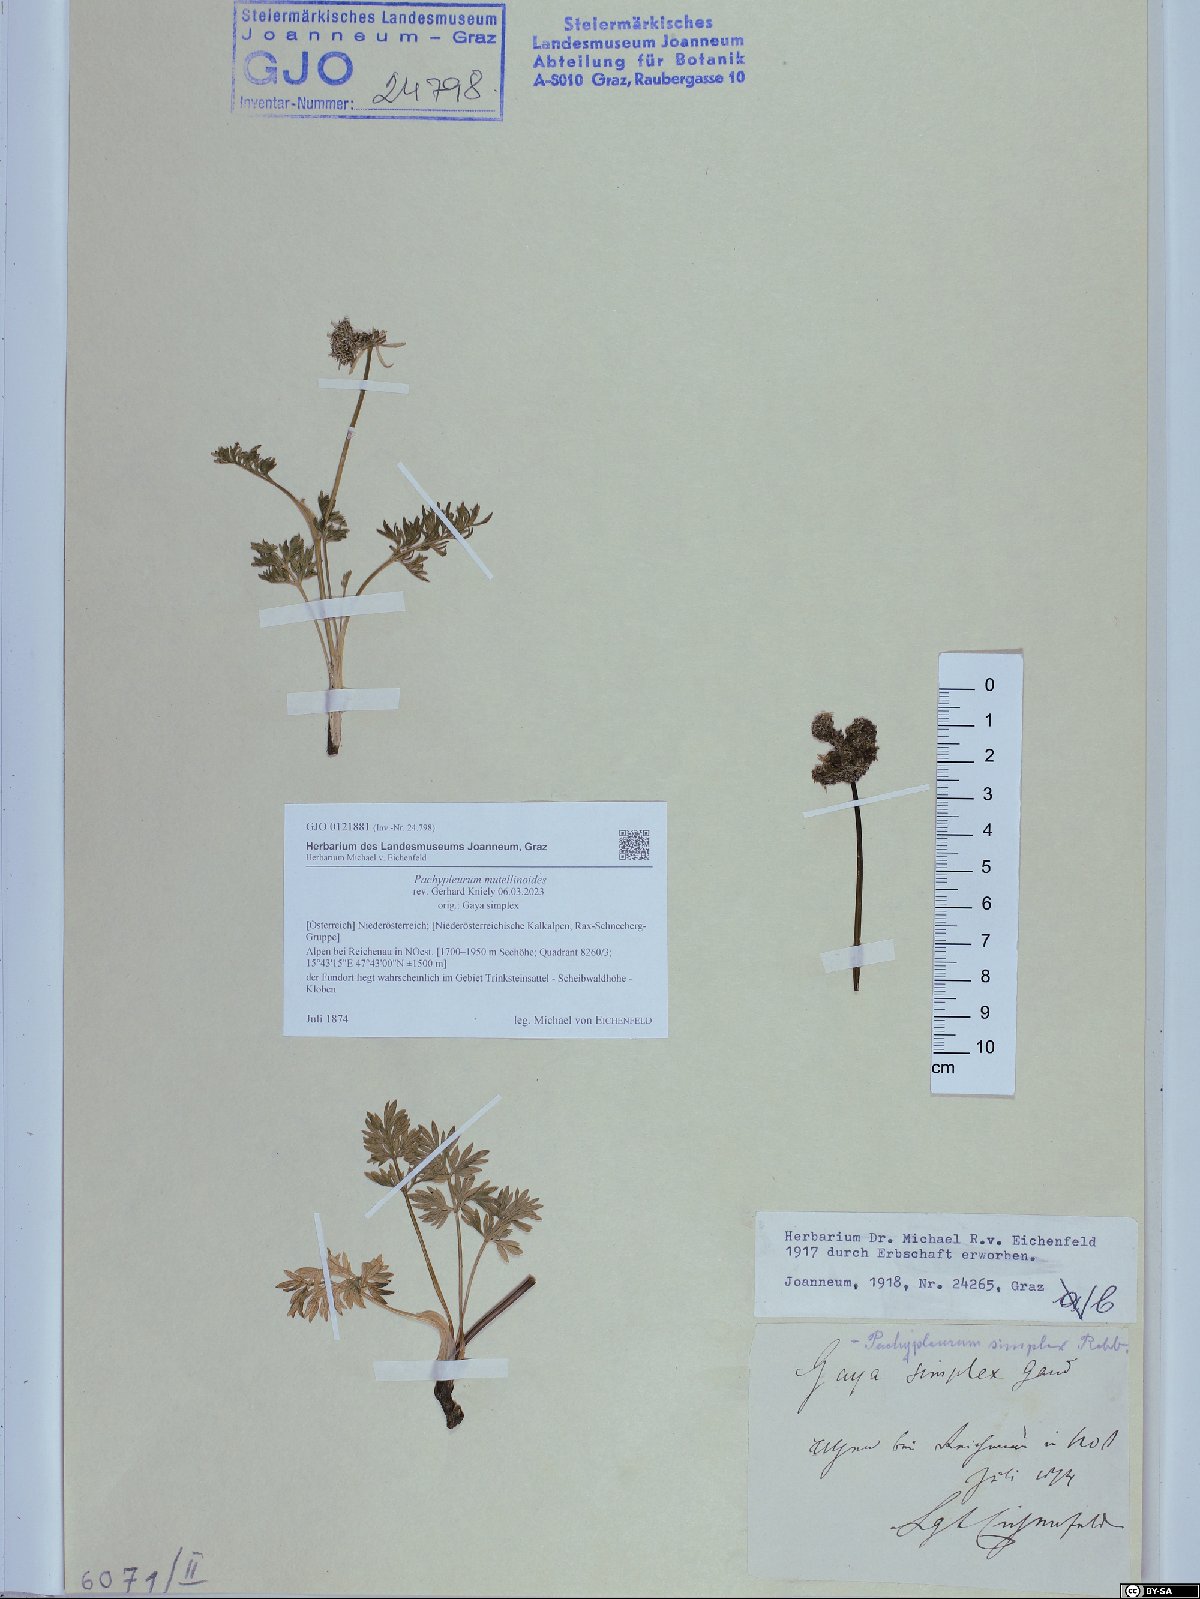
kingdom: Plantae
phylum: Tracheophyta
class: Magnoliopsida
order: Apiales
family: Apiaceae
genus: Pachypleurum
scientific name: Pachypleurum mutellinoides
